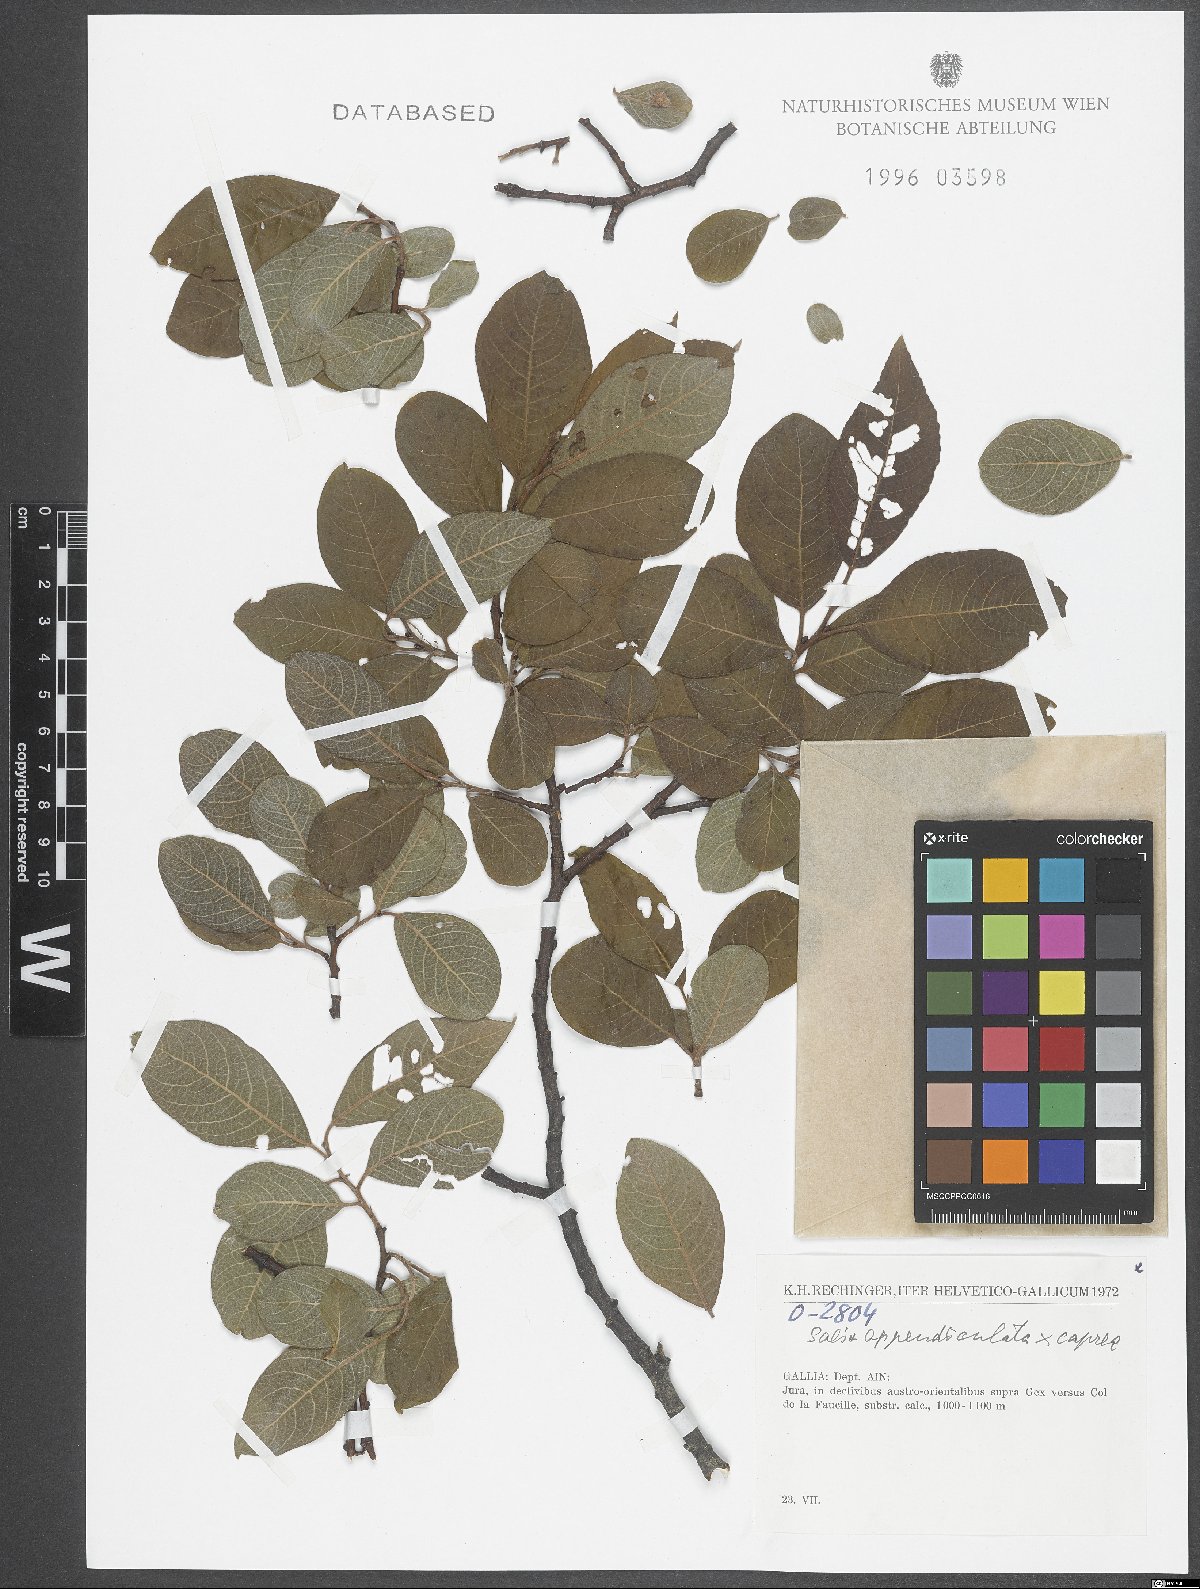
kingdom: Plantae
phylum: Tracheophyta
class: Magnoliopsida
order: Malpighiales
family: Salicaceae
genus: Salix
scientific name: Salix appendiculata
